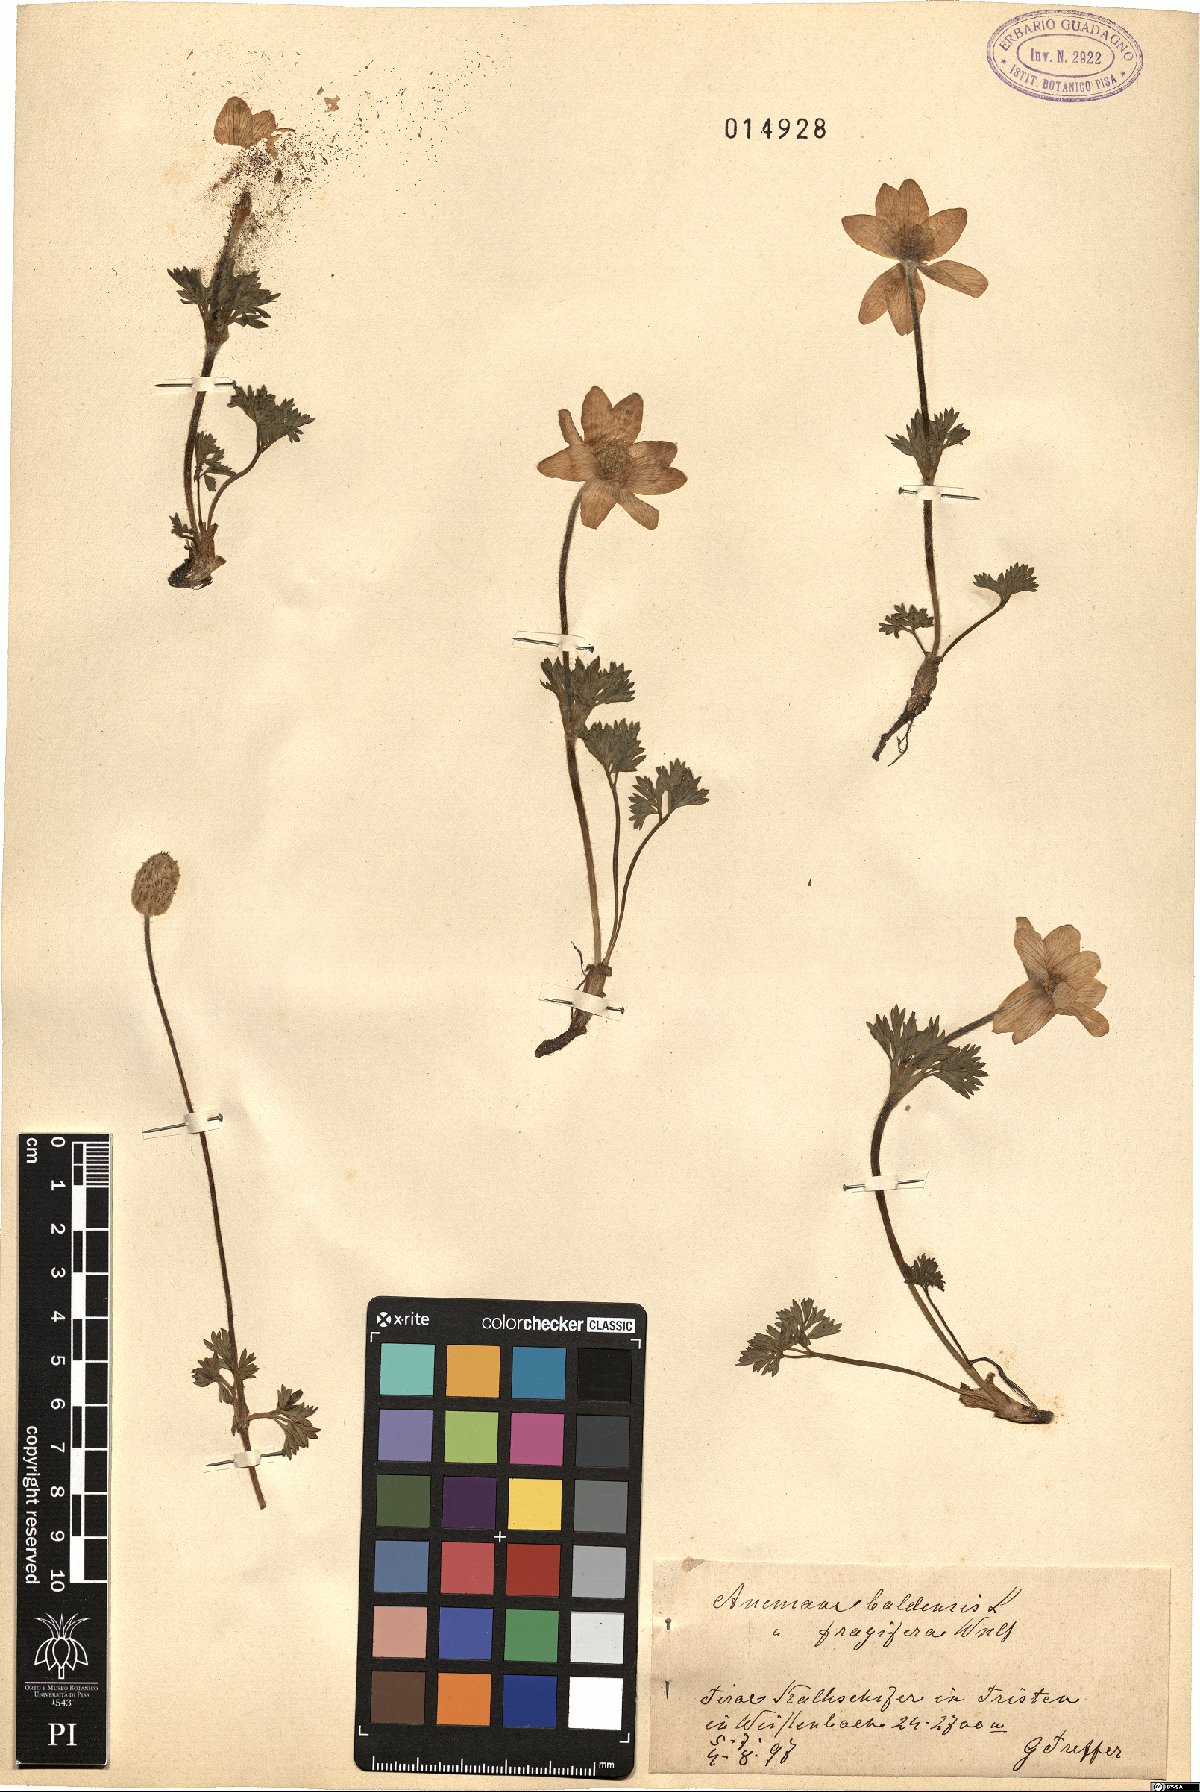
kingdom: Plantae
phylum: Tracheophyta
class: Magnoliopsida
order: Ranunculales
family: Ranunculaceae
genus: Anemone
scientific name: Anemone baldensis
